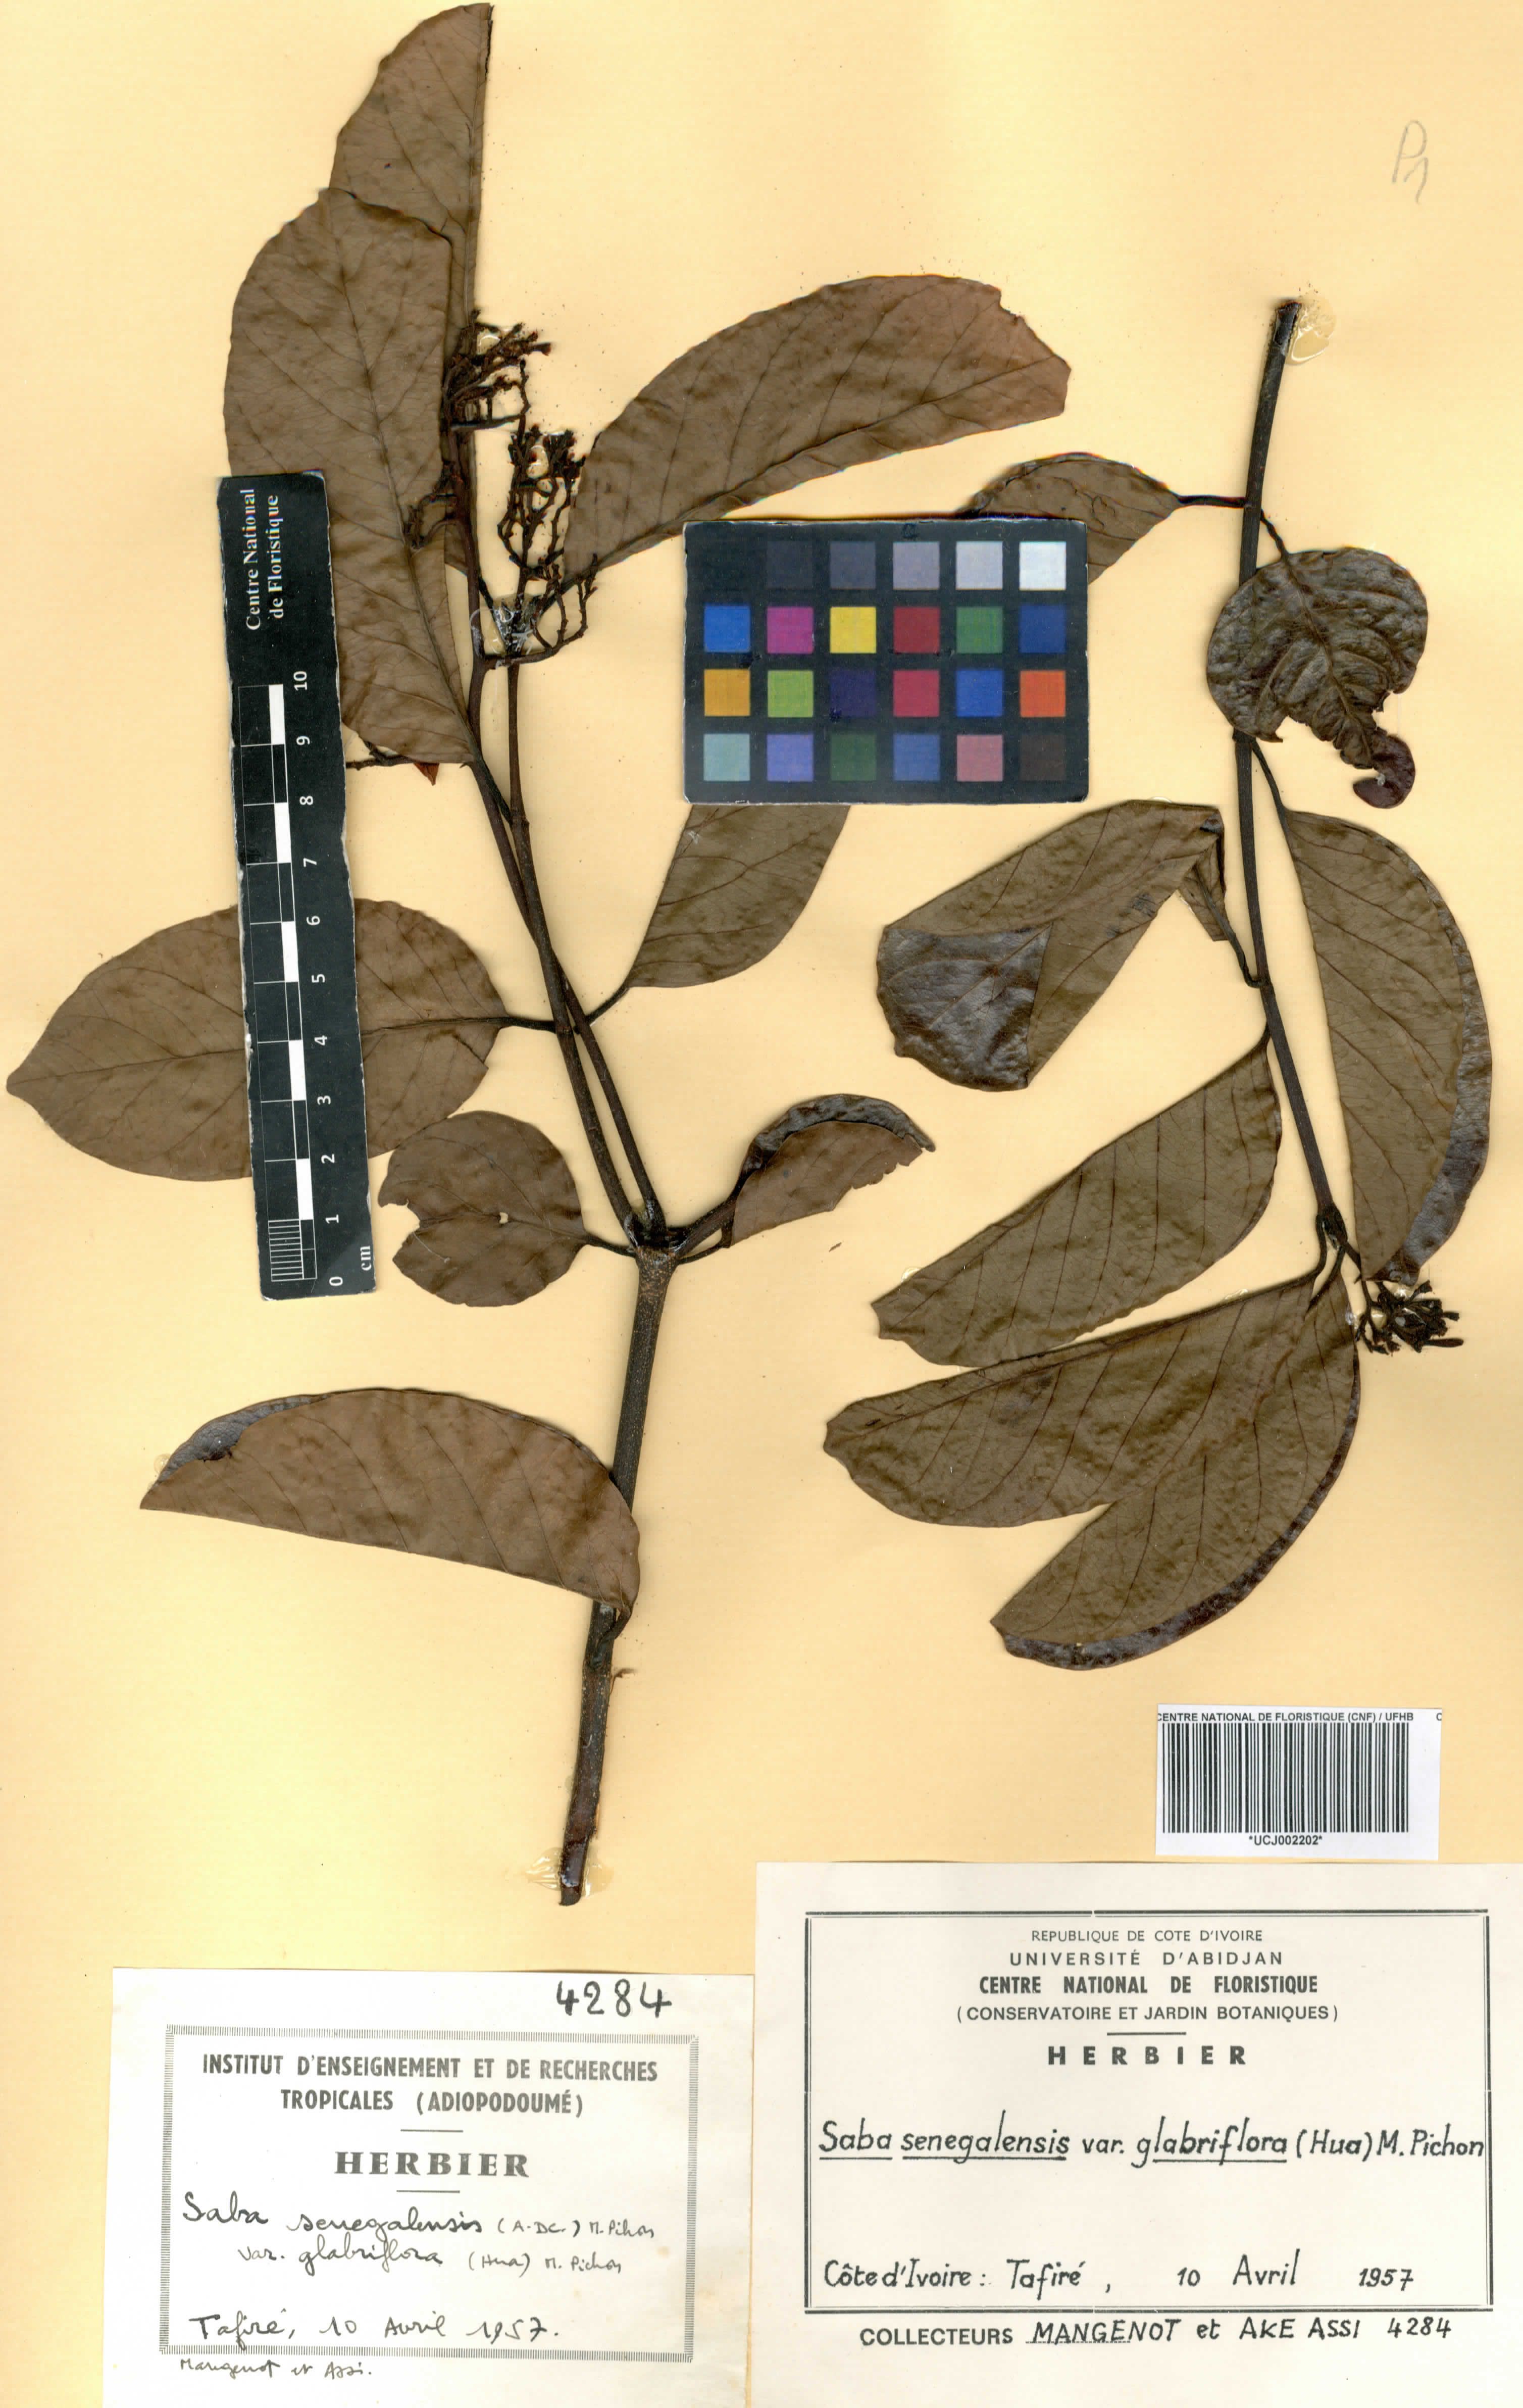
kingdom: Plantae
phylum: Tracheophyta
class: Magnoliopsida
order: Gentianales
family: Apocynaceae
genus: Saba
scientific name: Saba senegalensis
